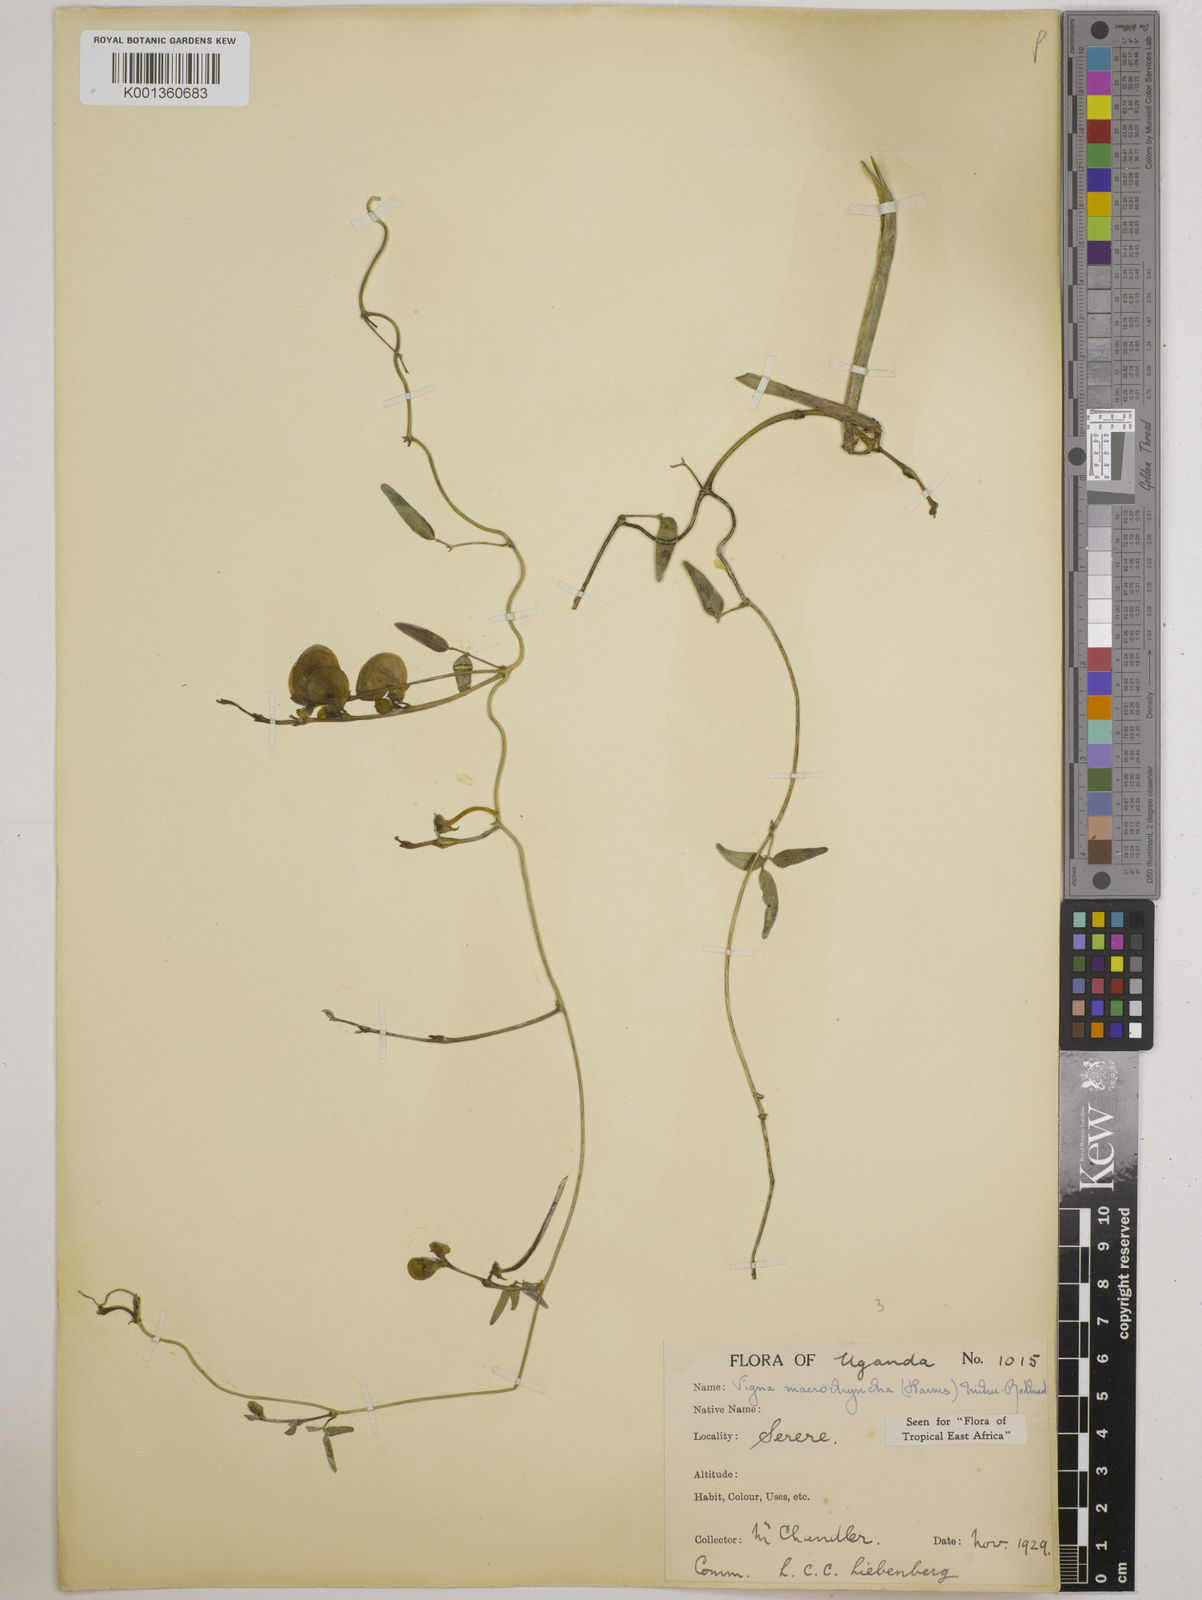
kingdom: Plantae
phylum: Tracheophyta
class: Magnoliopsida
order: Fabales
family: Fabaceae
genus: Wajira
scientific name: Wajira grahamiana
